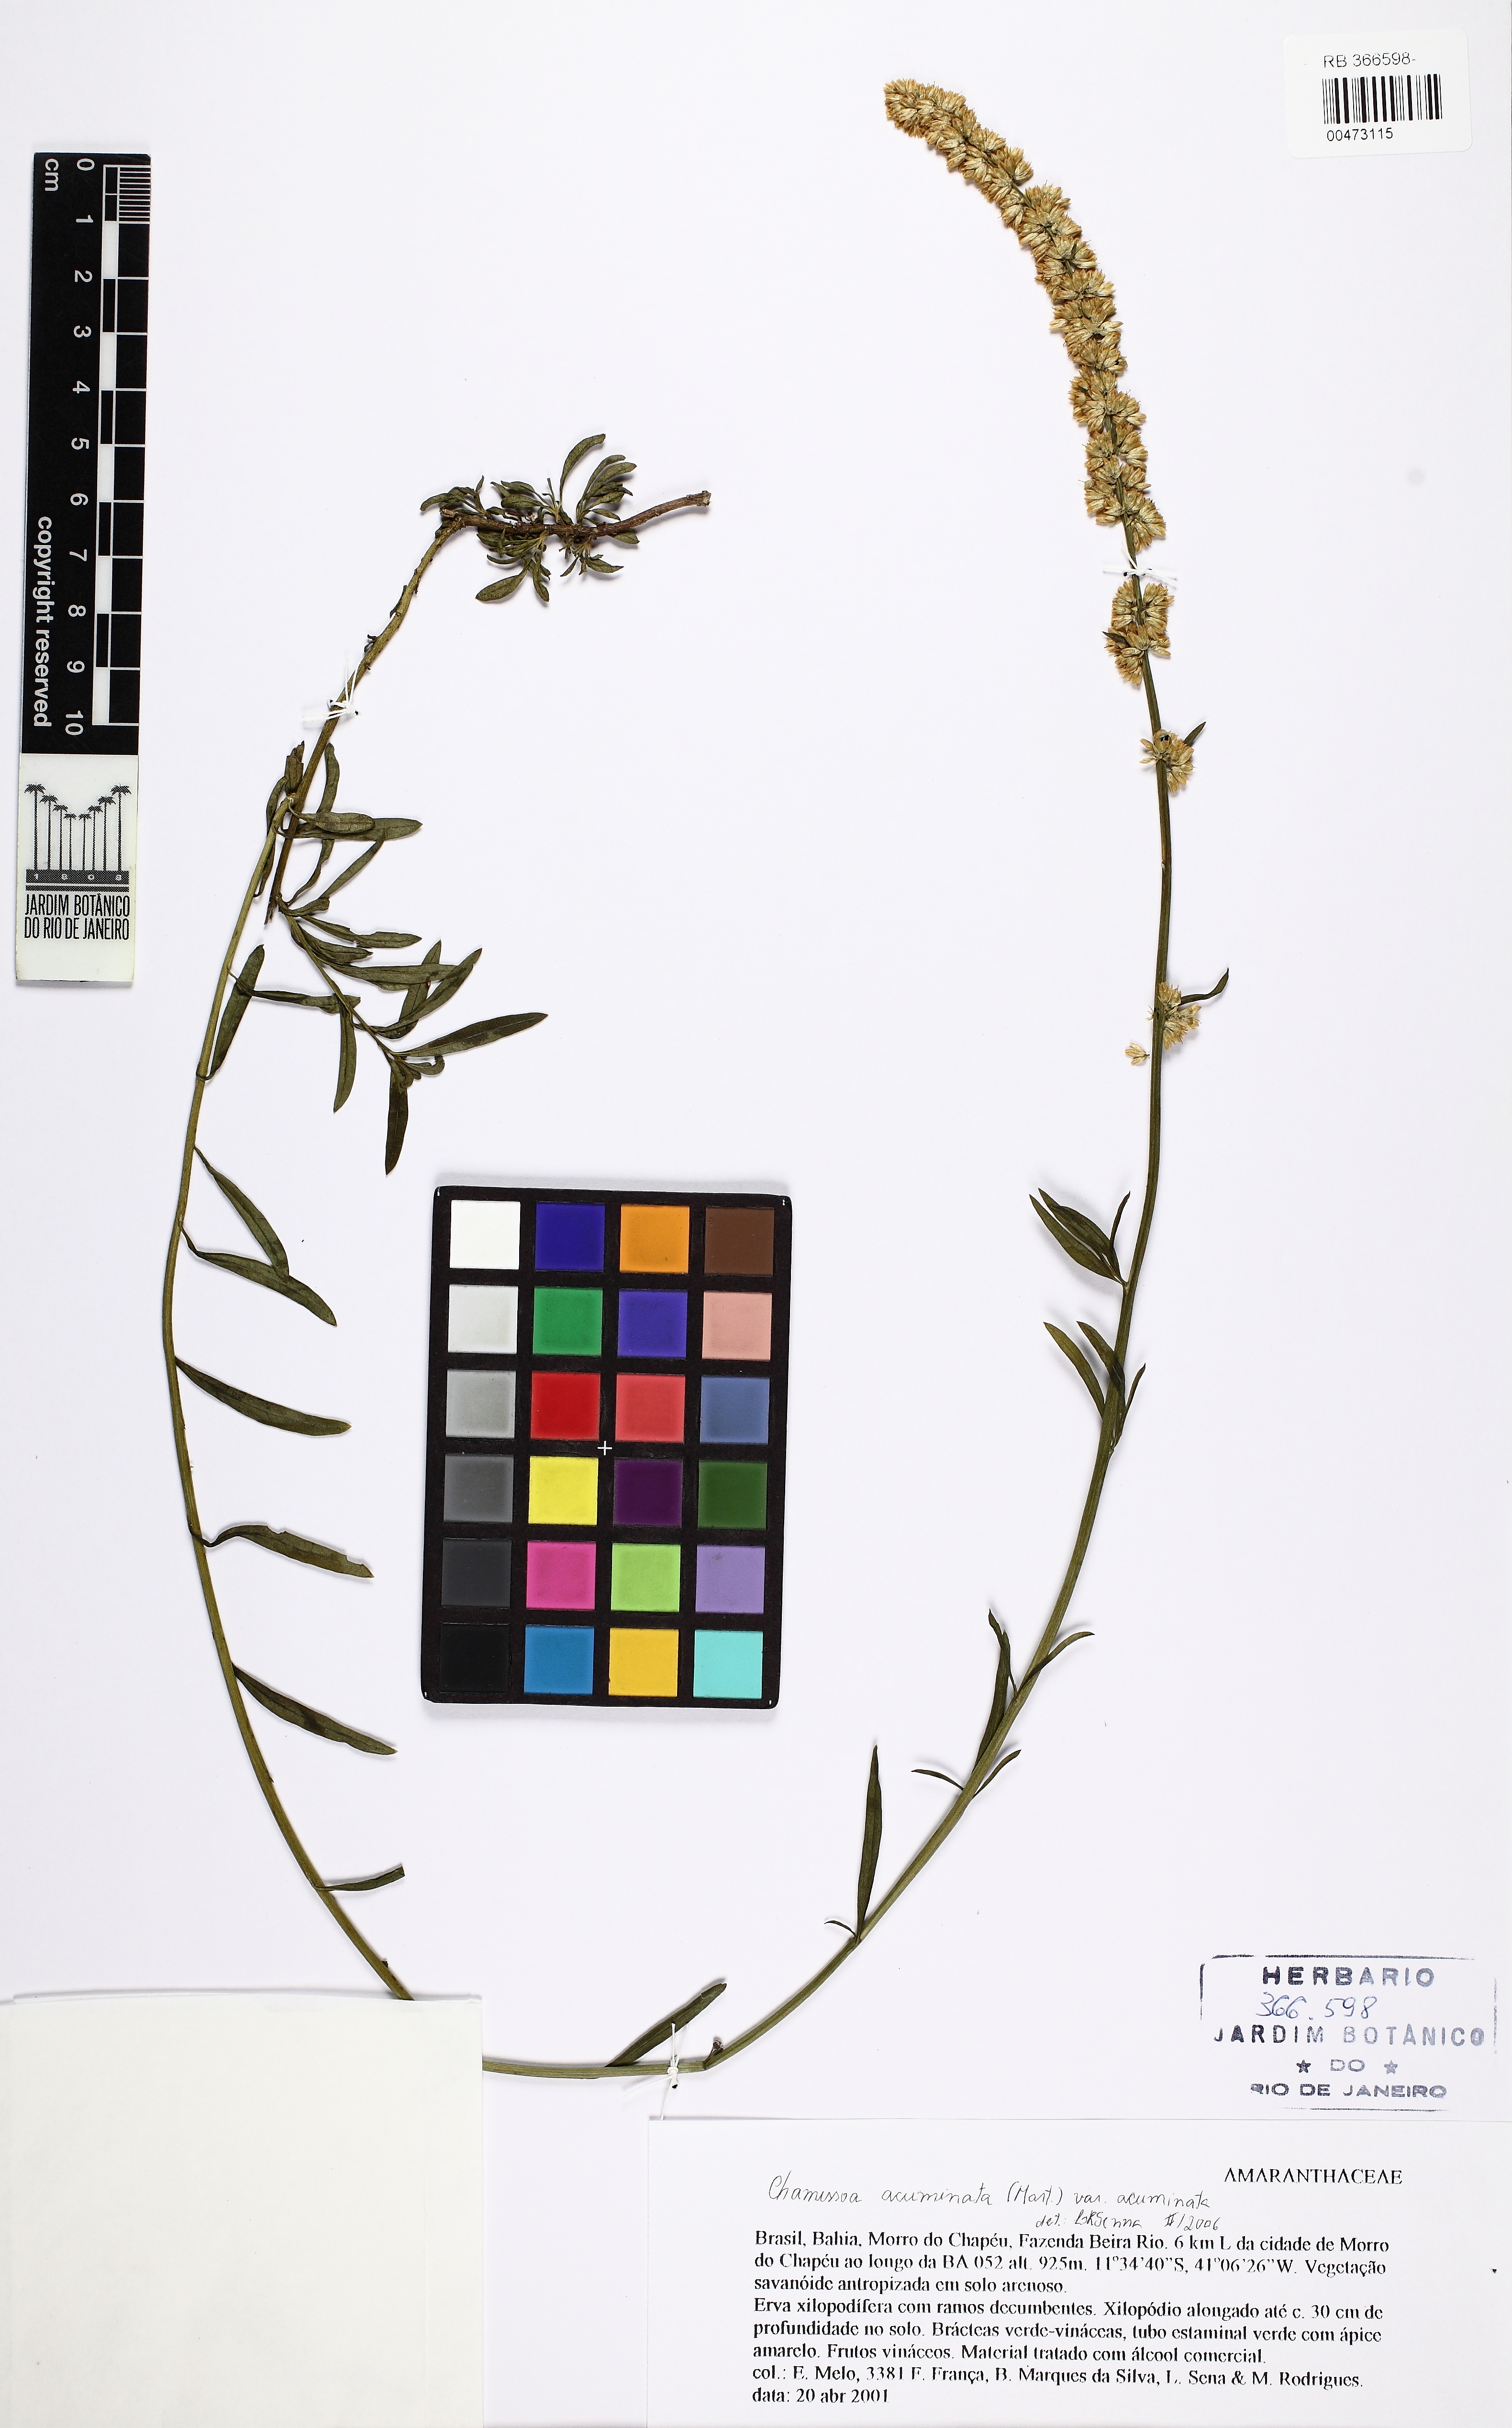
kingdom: Plantae
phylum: Tracheophyta
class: Magnoliopsida
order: Caryophyllales
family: Amaranthaceae
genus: Chamissoa
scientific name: Chamissoa acuminata
